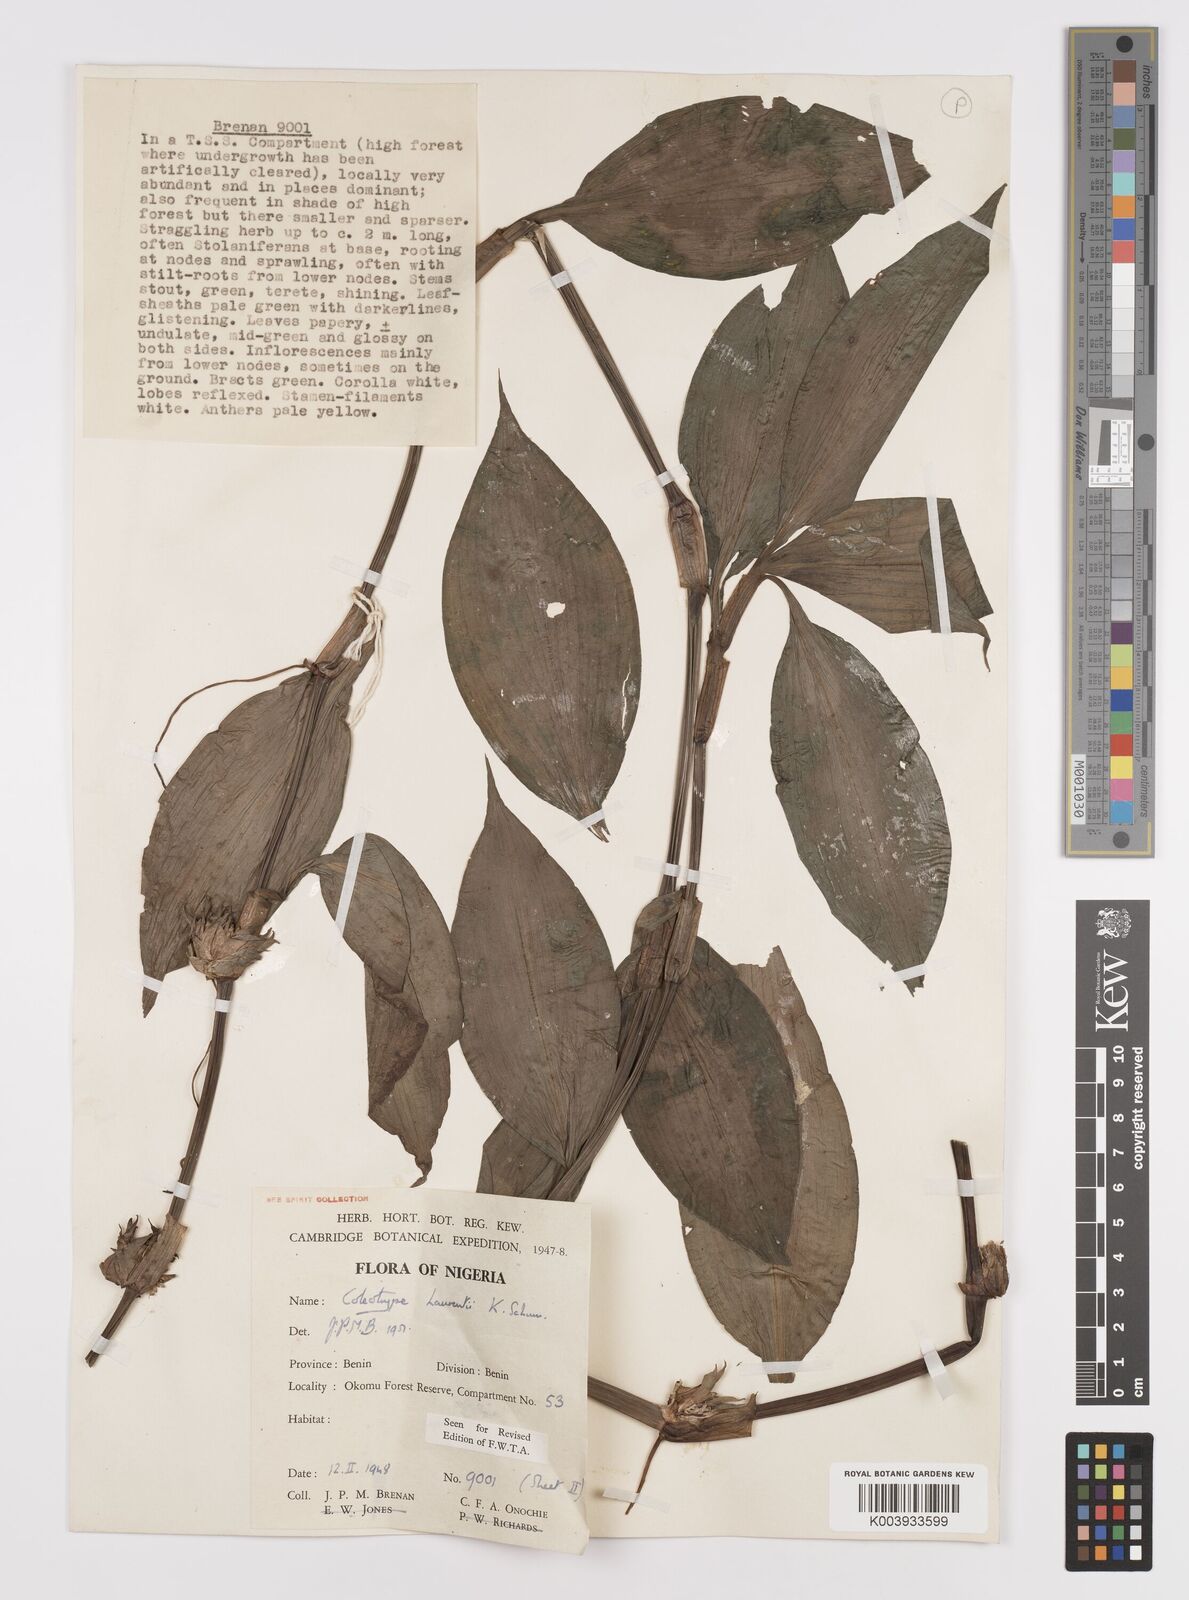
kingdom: Plantae
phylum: Tracheophyta
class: Liliopsida
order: Commelinales
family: Commelinaceae
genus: Coleotrype
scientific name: Coleotrype laurentii
